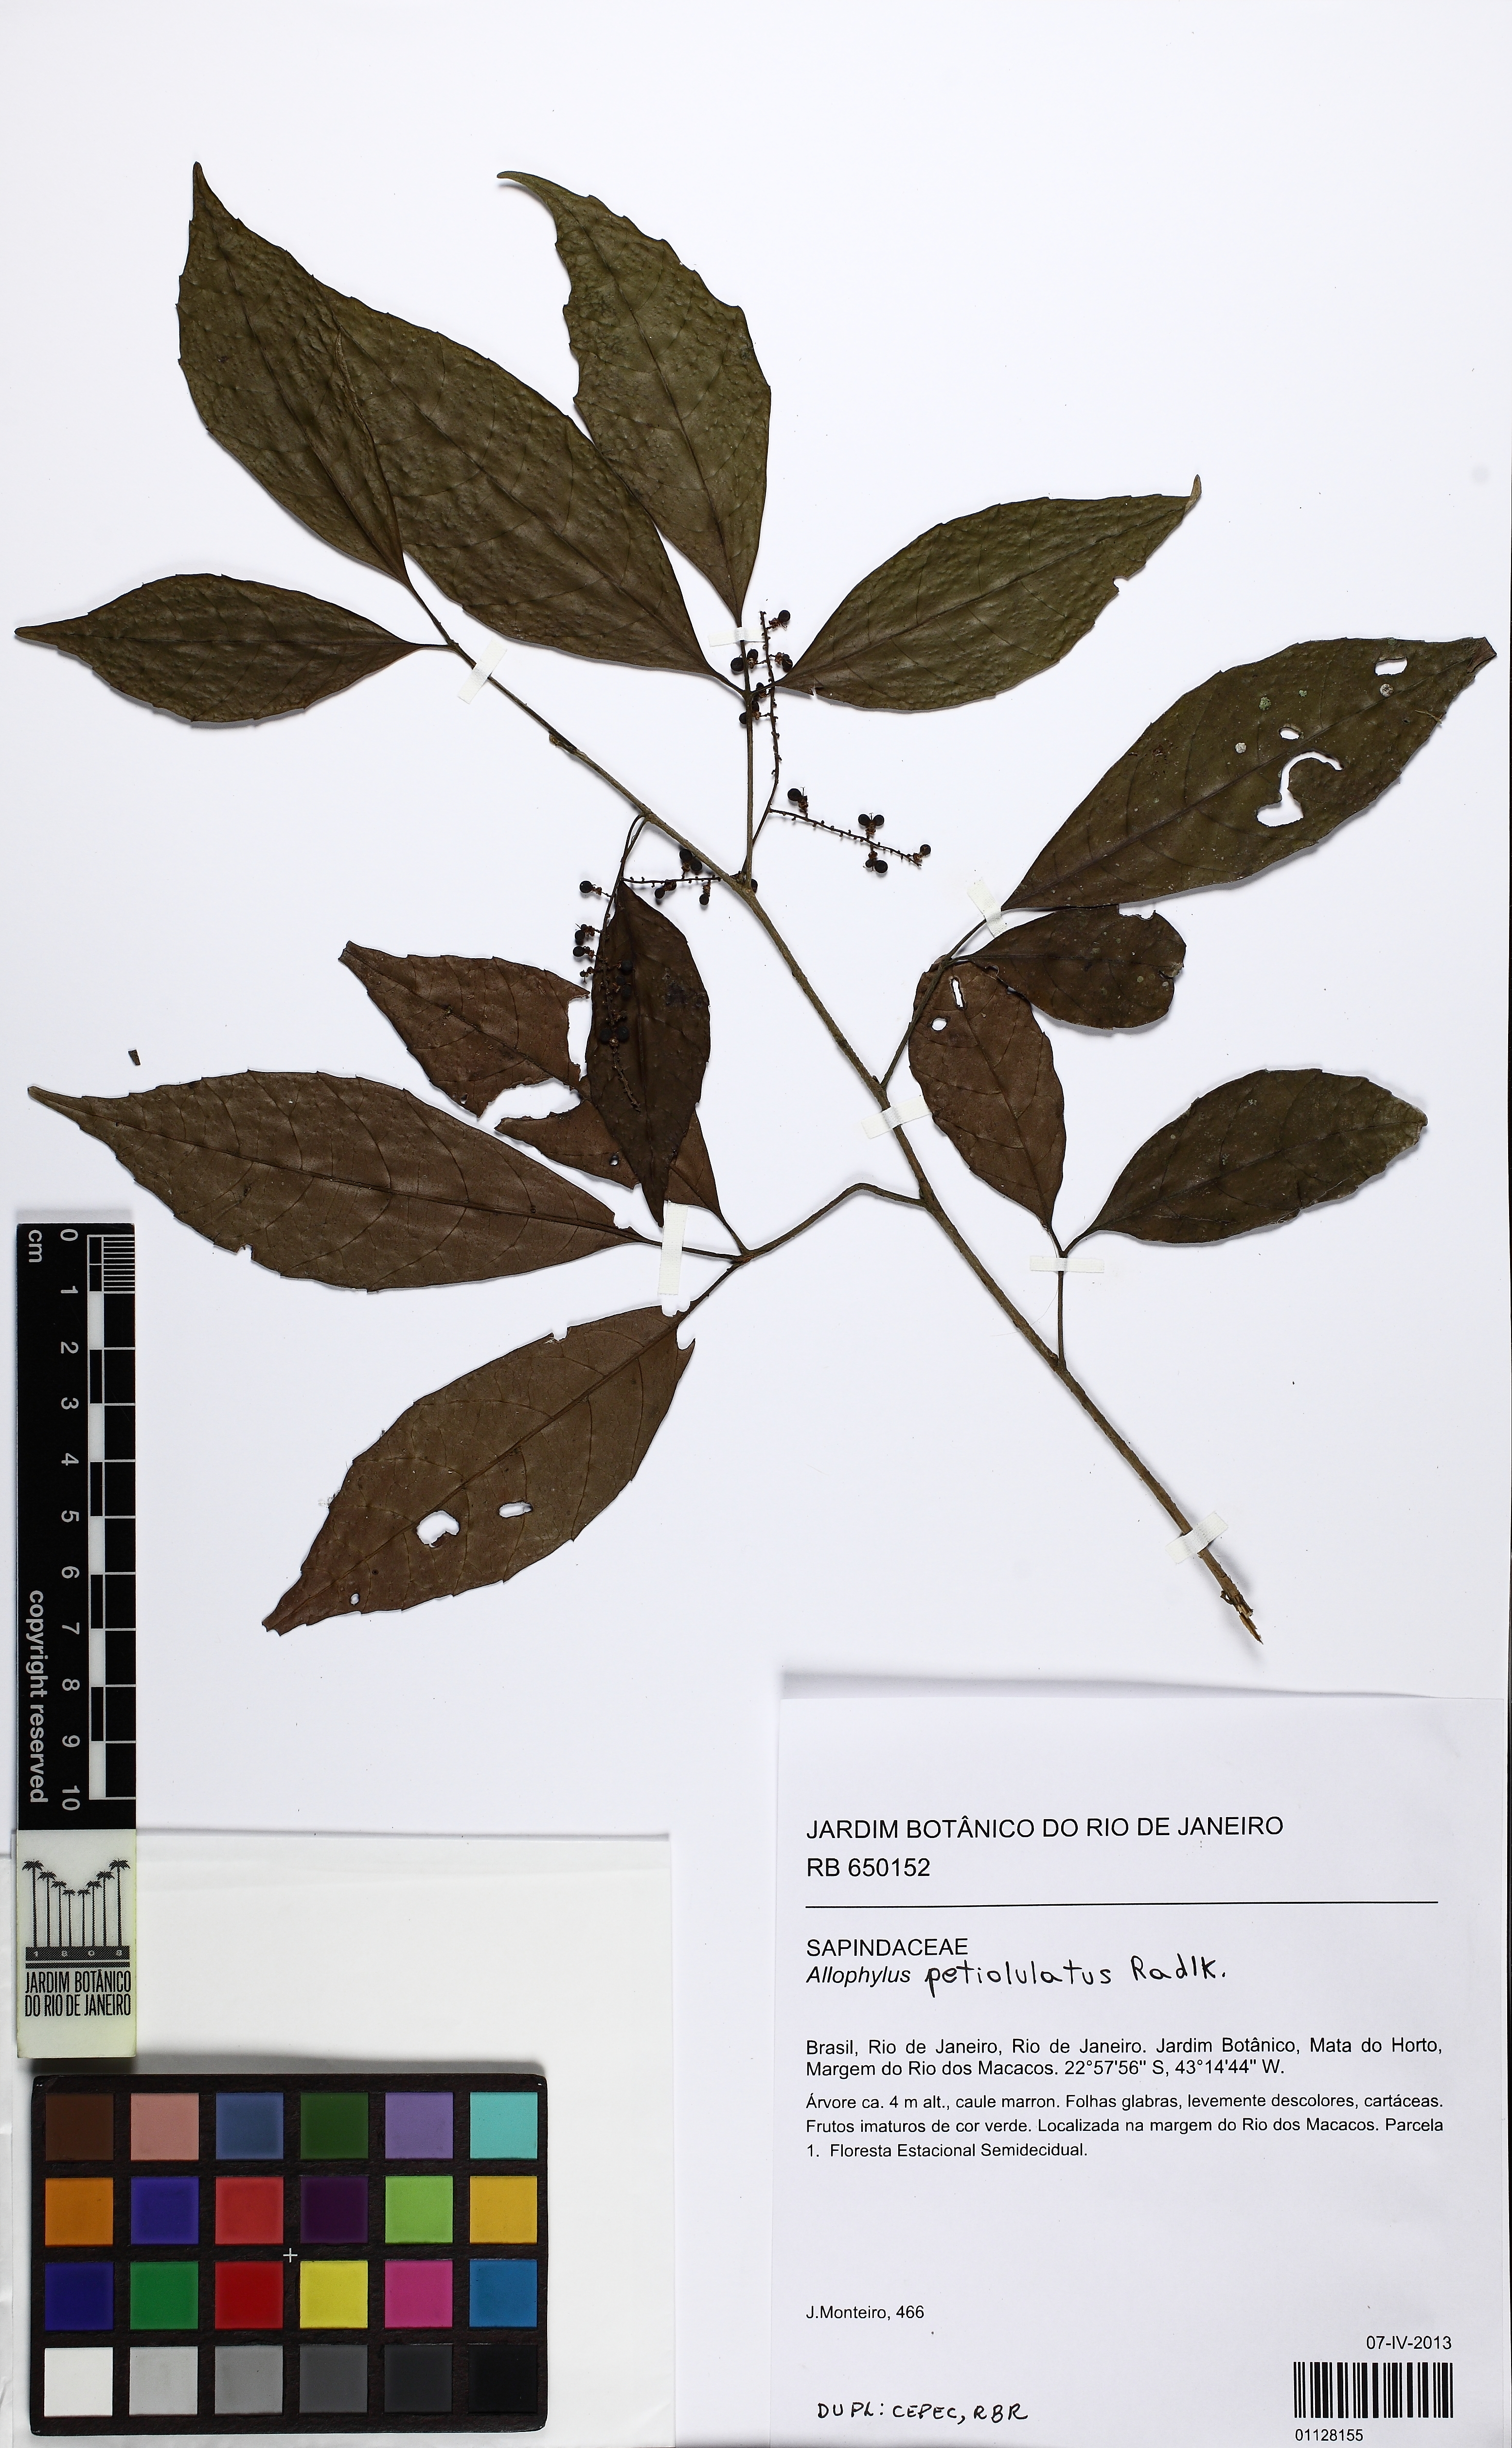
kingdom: Plantae
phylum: Tracheophyta
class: Magnoliopsida
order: Sapindales
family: Sapindaceae
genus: Allophylus
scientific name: Allophylus petiolulatus
